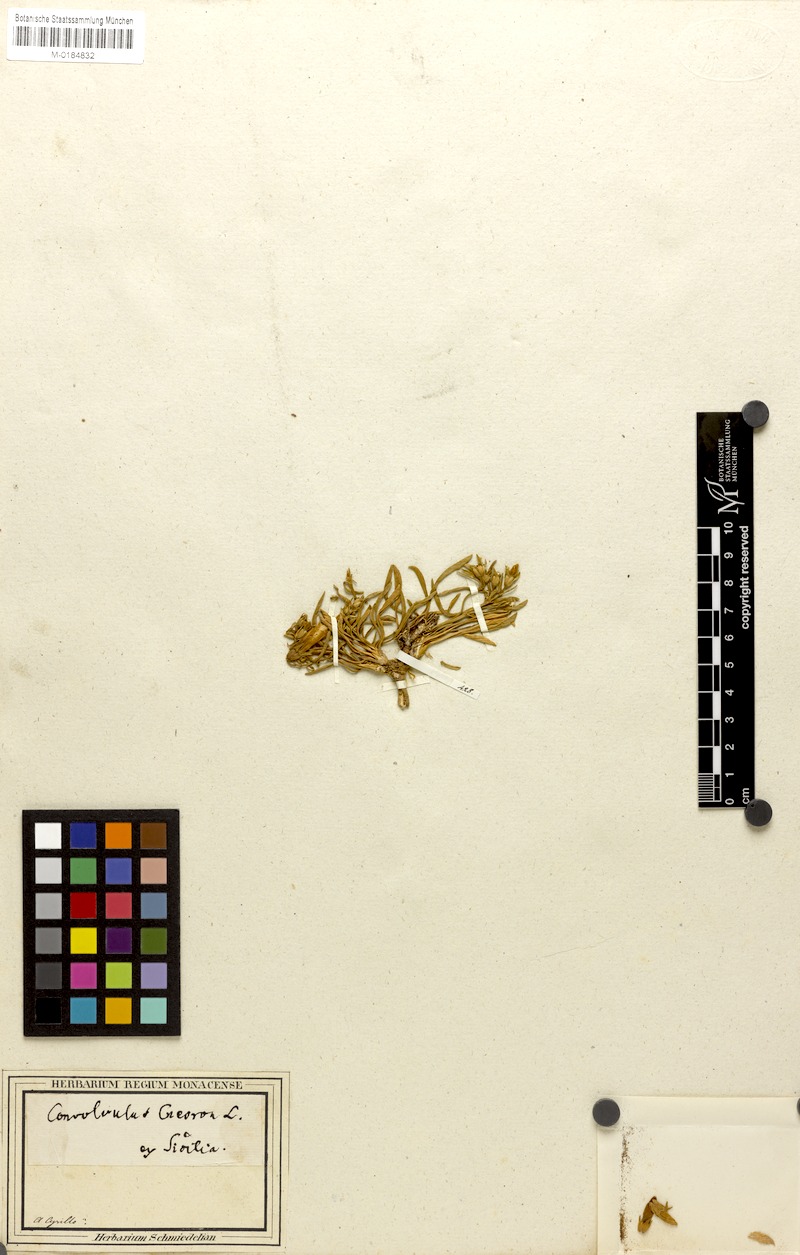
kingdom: Plantae
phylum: Tracheophyta
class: Magnoliopsida
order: Solanales
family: Convolvulaceae
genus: Convolvulus
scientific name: Convolvulus lineatus
